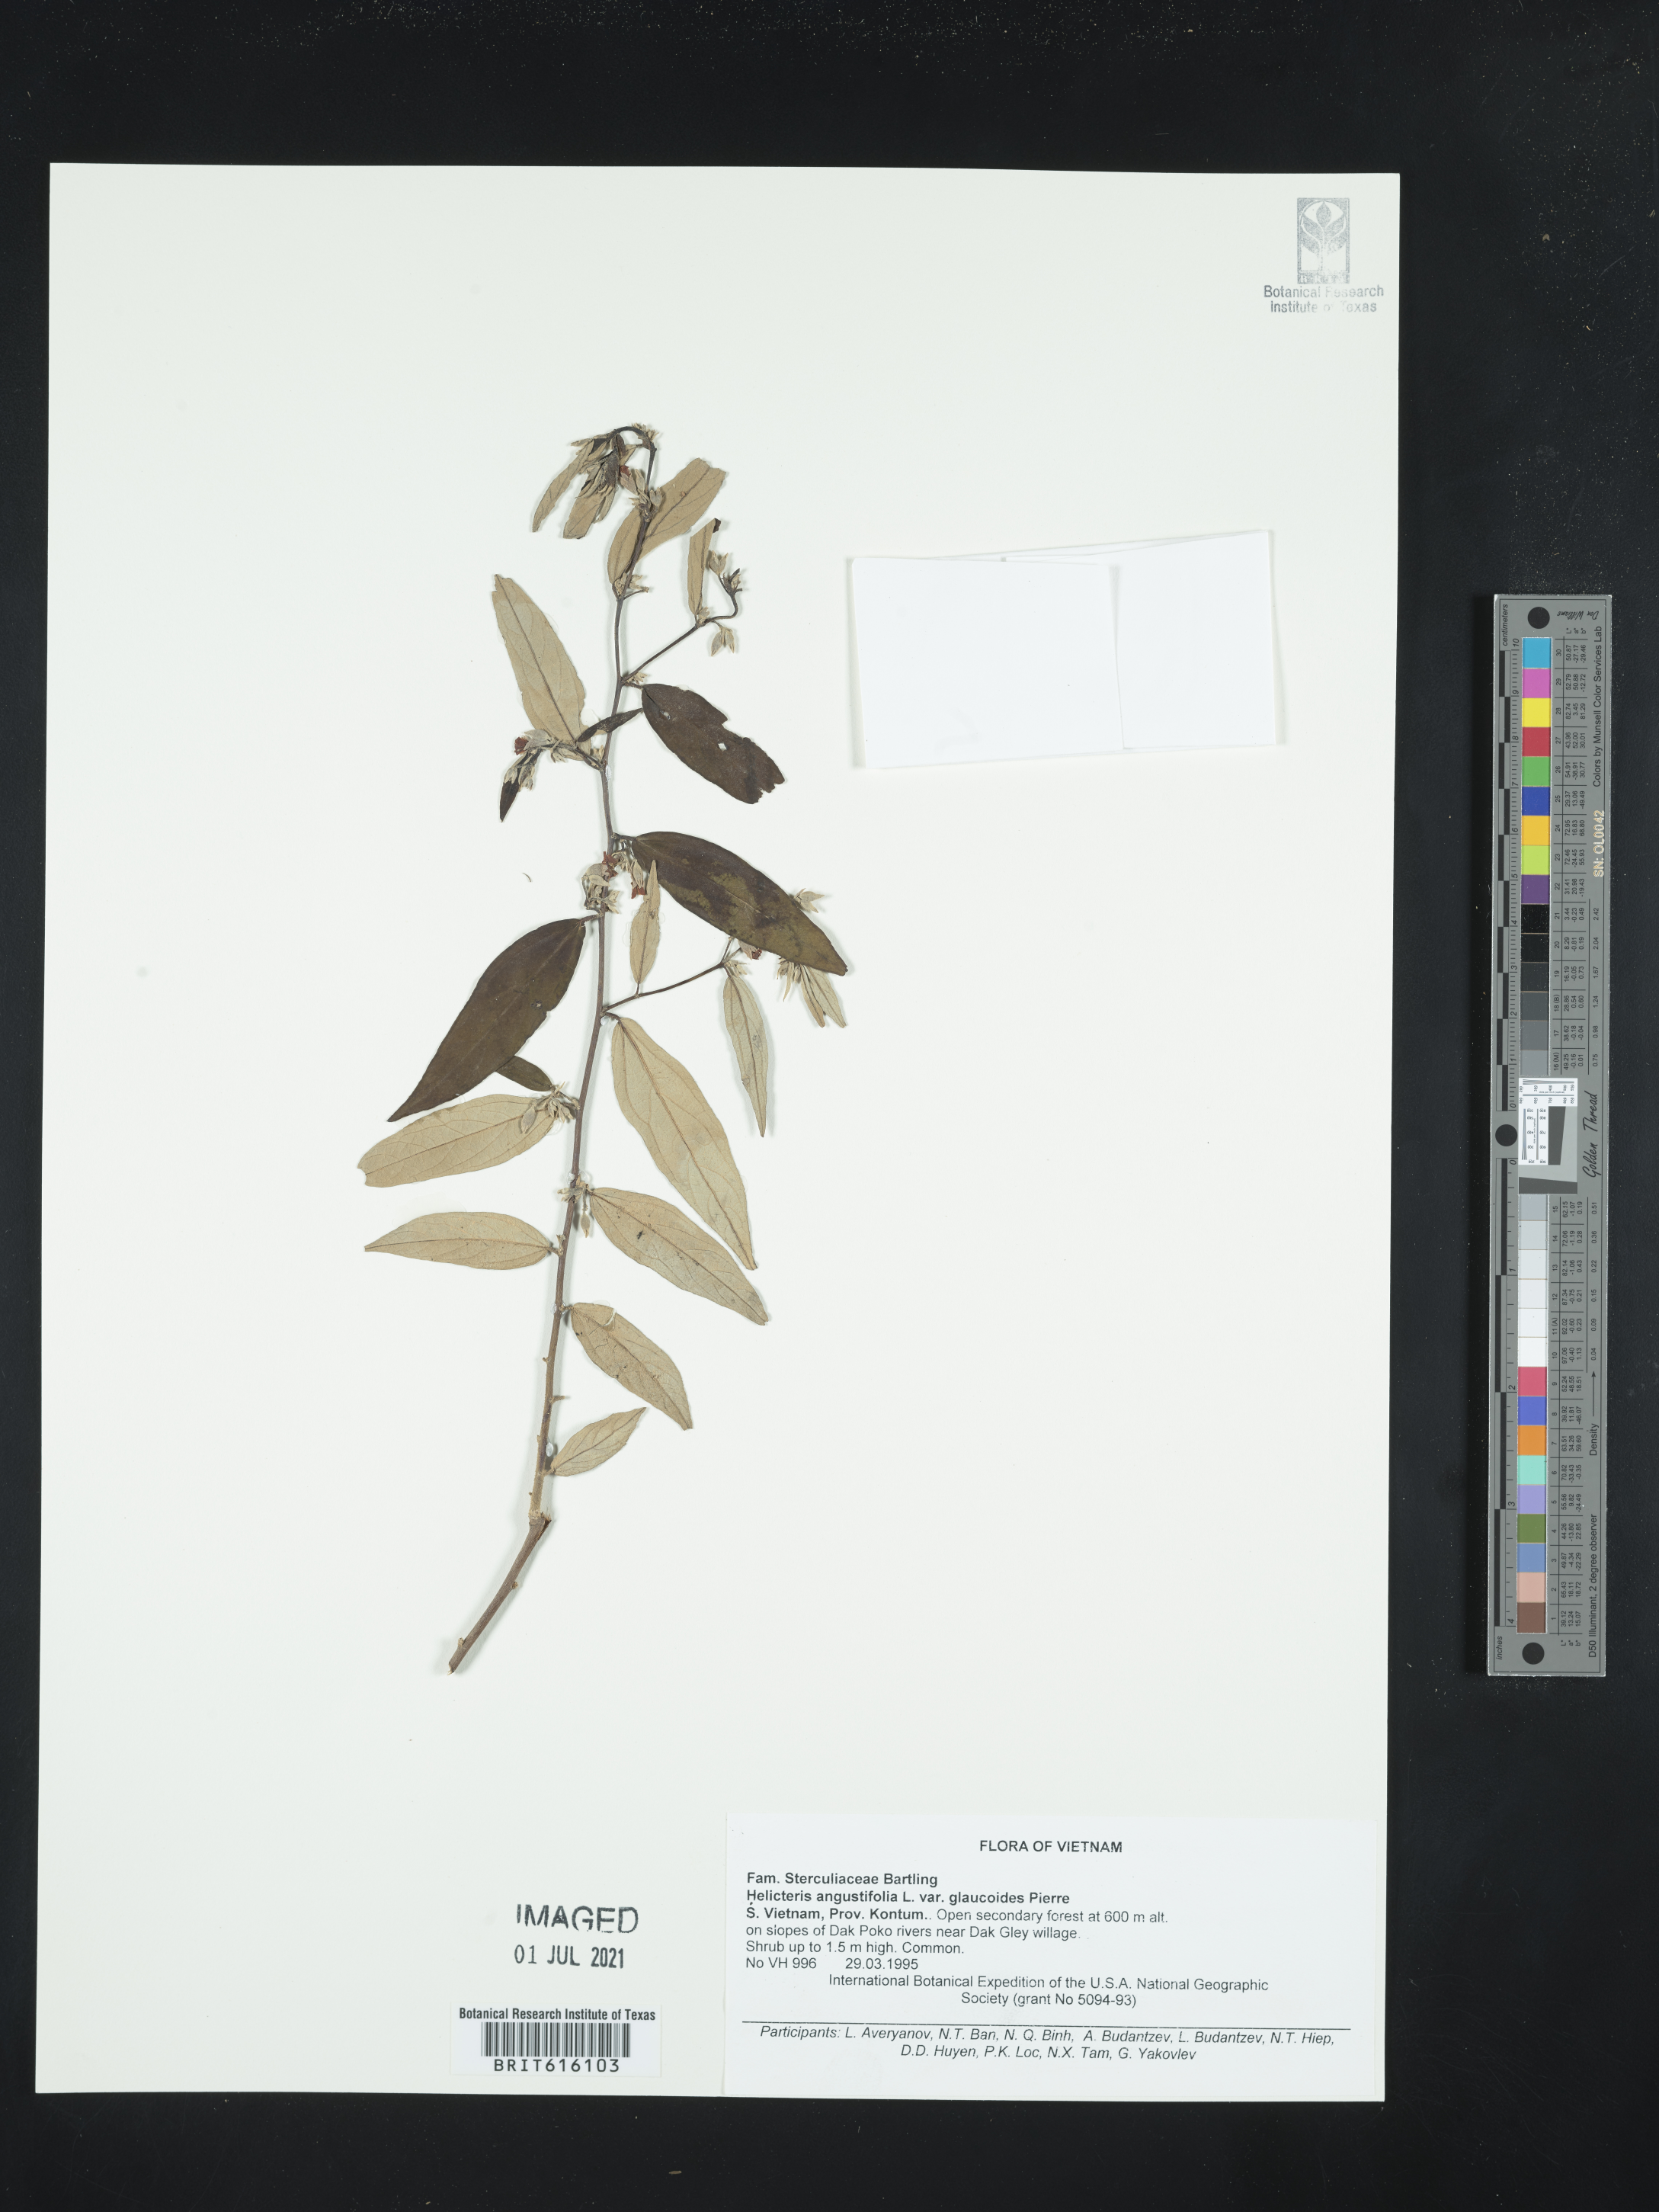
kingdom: Plantae
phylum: Tracheophyta
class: Magnoliopsida
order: Malvales
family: Malvaceae
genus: Helicteres
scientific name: Helicteres angustifolia
